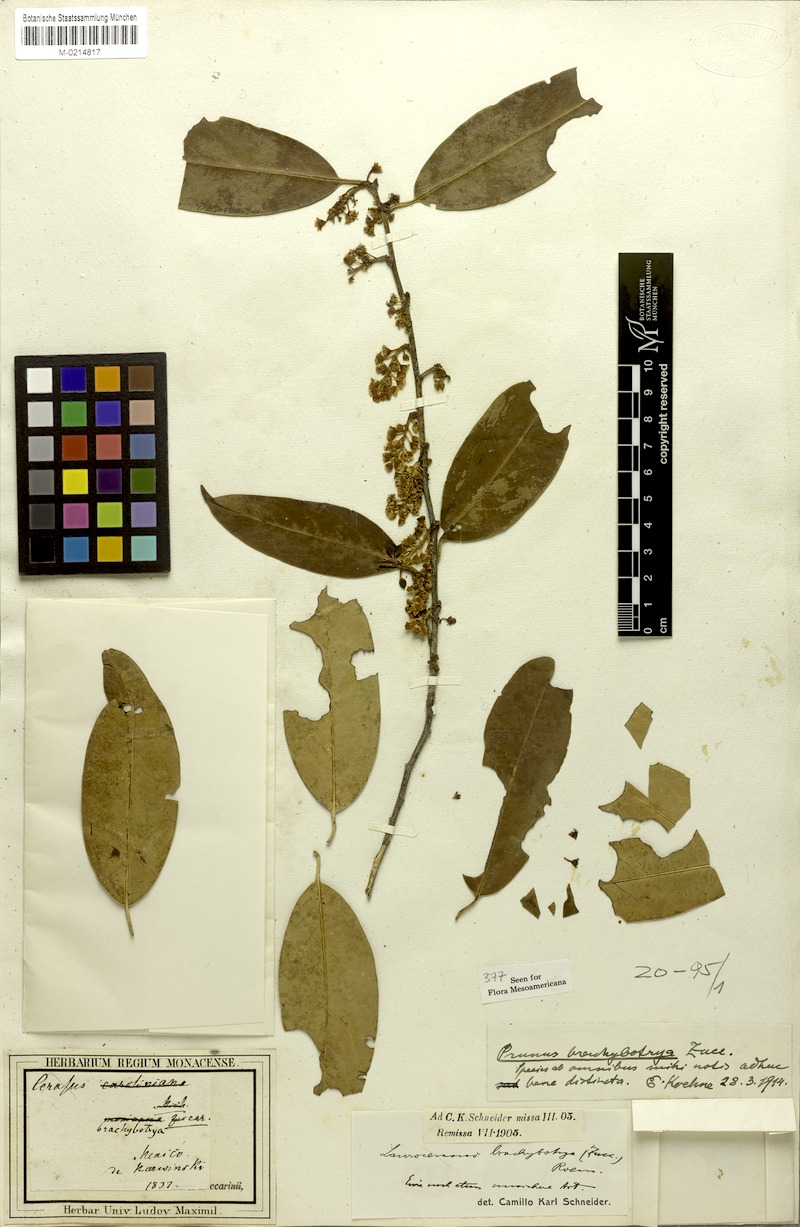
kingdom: Plantae
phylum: Tracheophyta
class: Magnoliopsida
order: Rosales
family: Rosaceae
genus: Prunus
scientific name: Prunus brachybotrya
